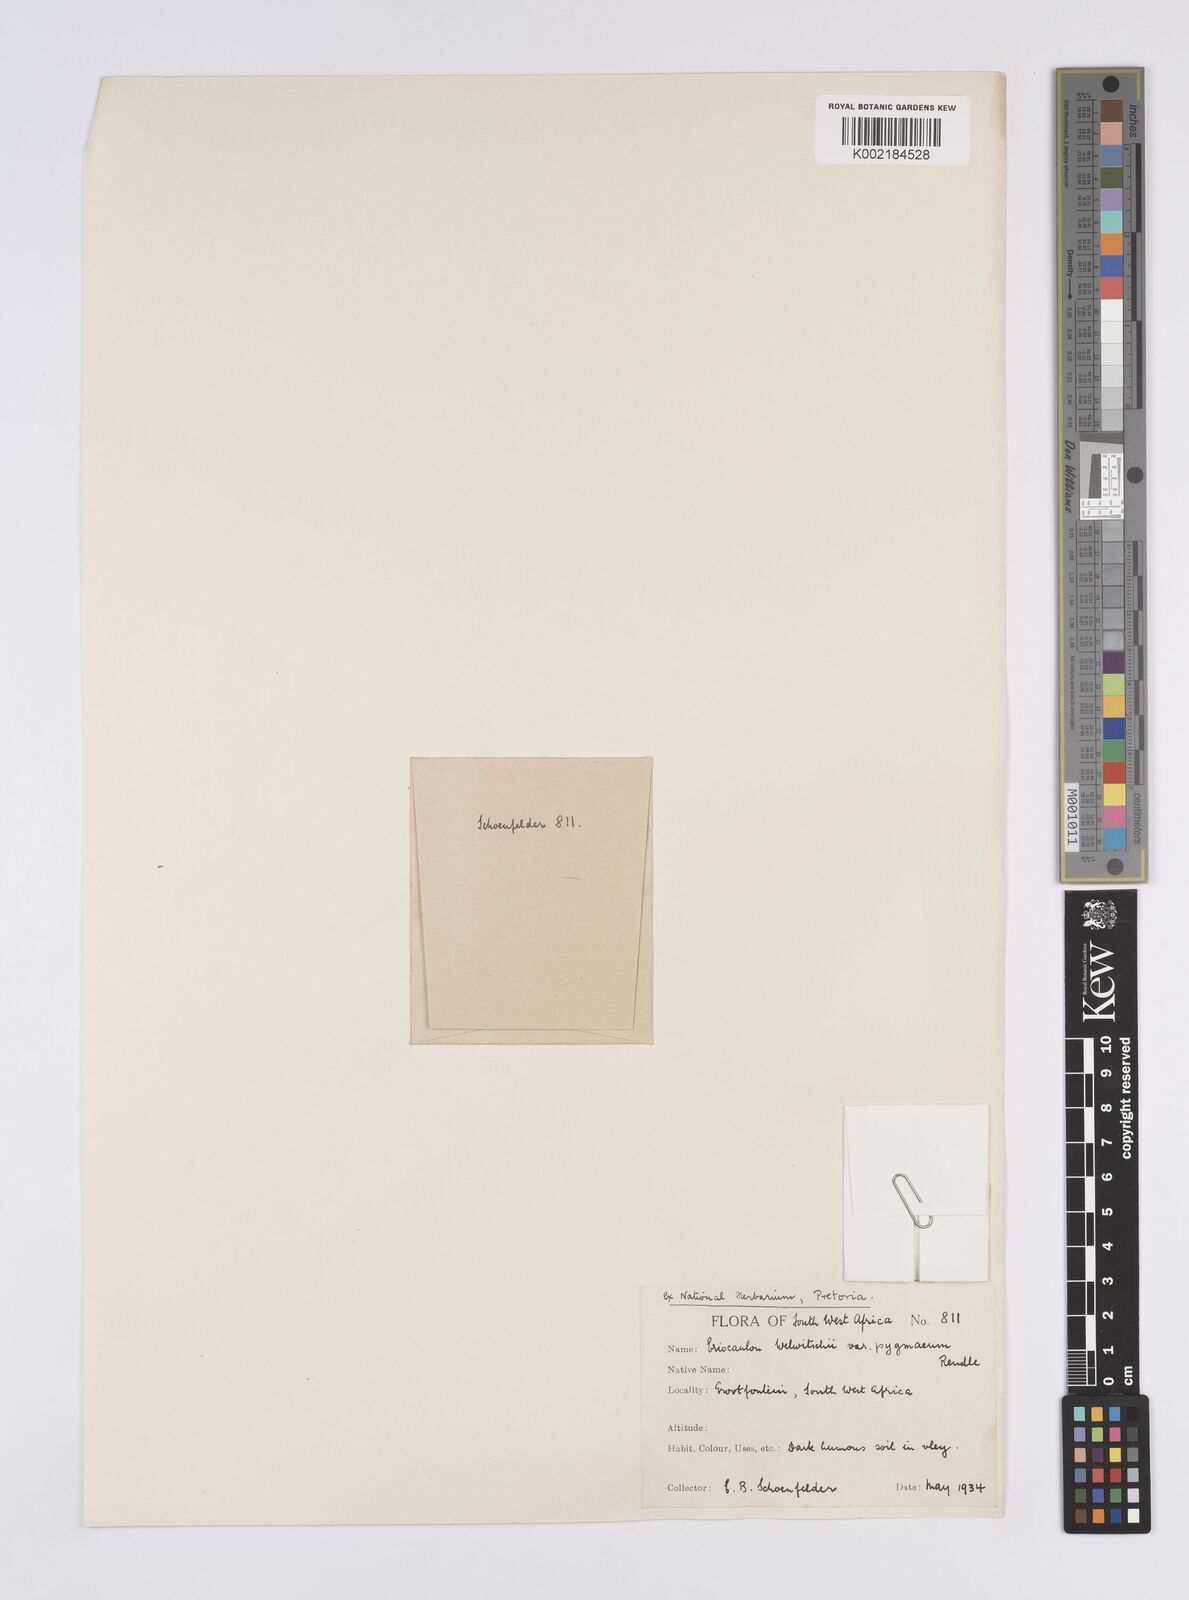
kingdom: Plantae
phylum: Tracheophyta
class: Liliopsida
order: Poales
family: Eriocaulaceae
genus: Eriocaulon
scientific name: Eriocaulon welwitschii
